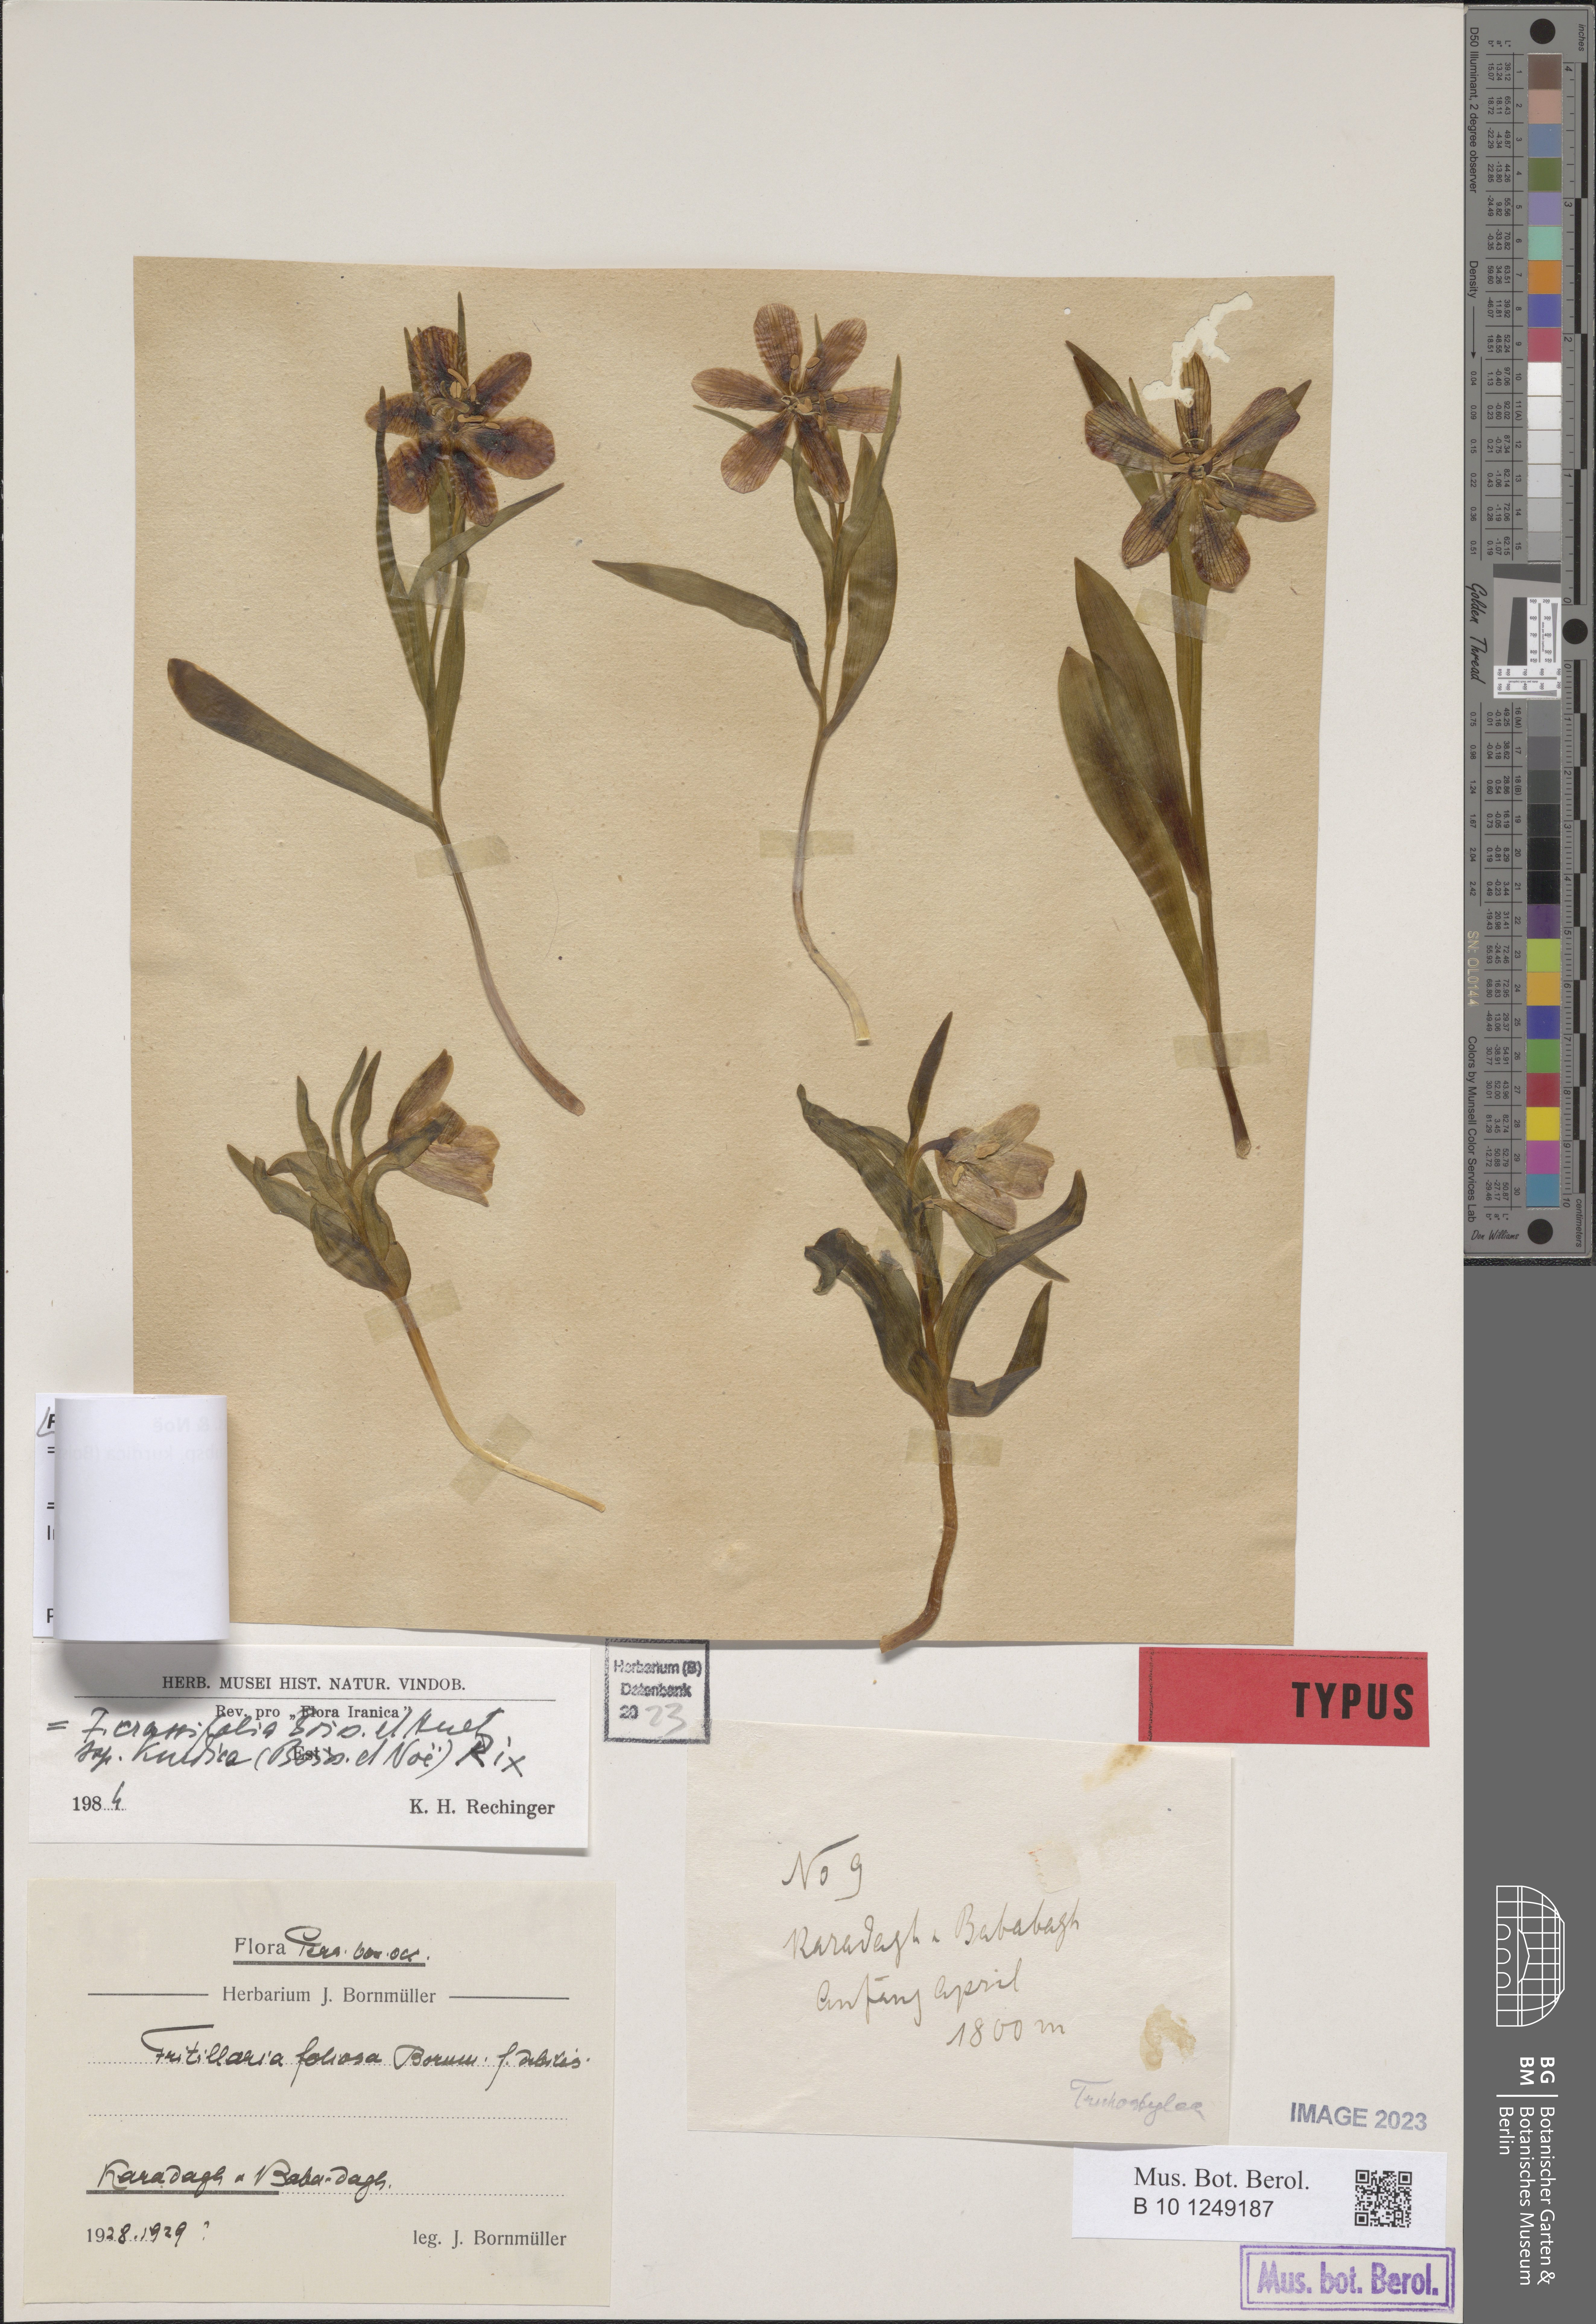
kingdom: Plantae
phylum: Tracheophyta
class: Liliopsida
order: Liliales
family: Liliaceae
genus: Fritillaria
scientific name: Fritillaria kurdica
